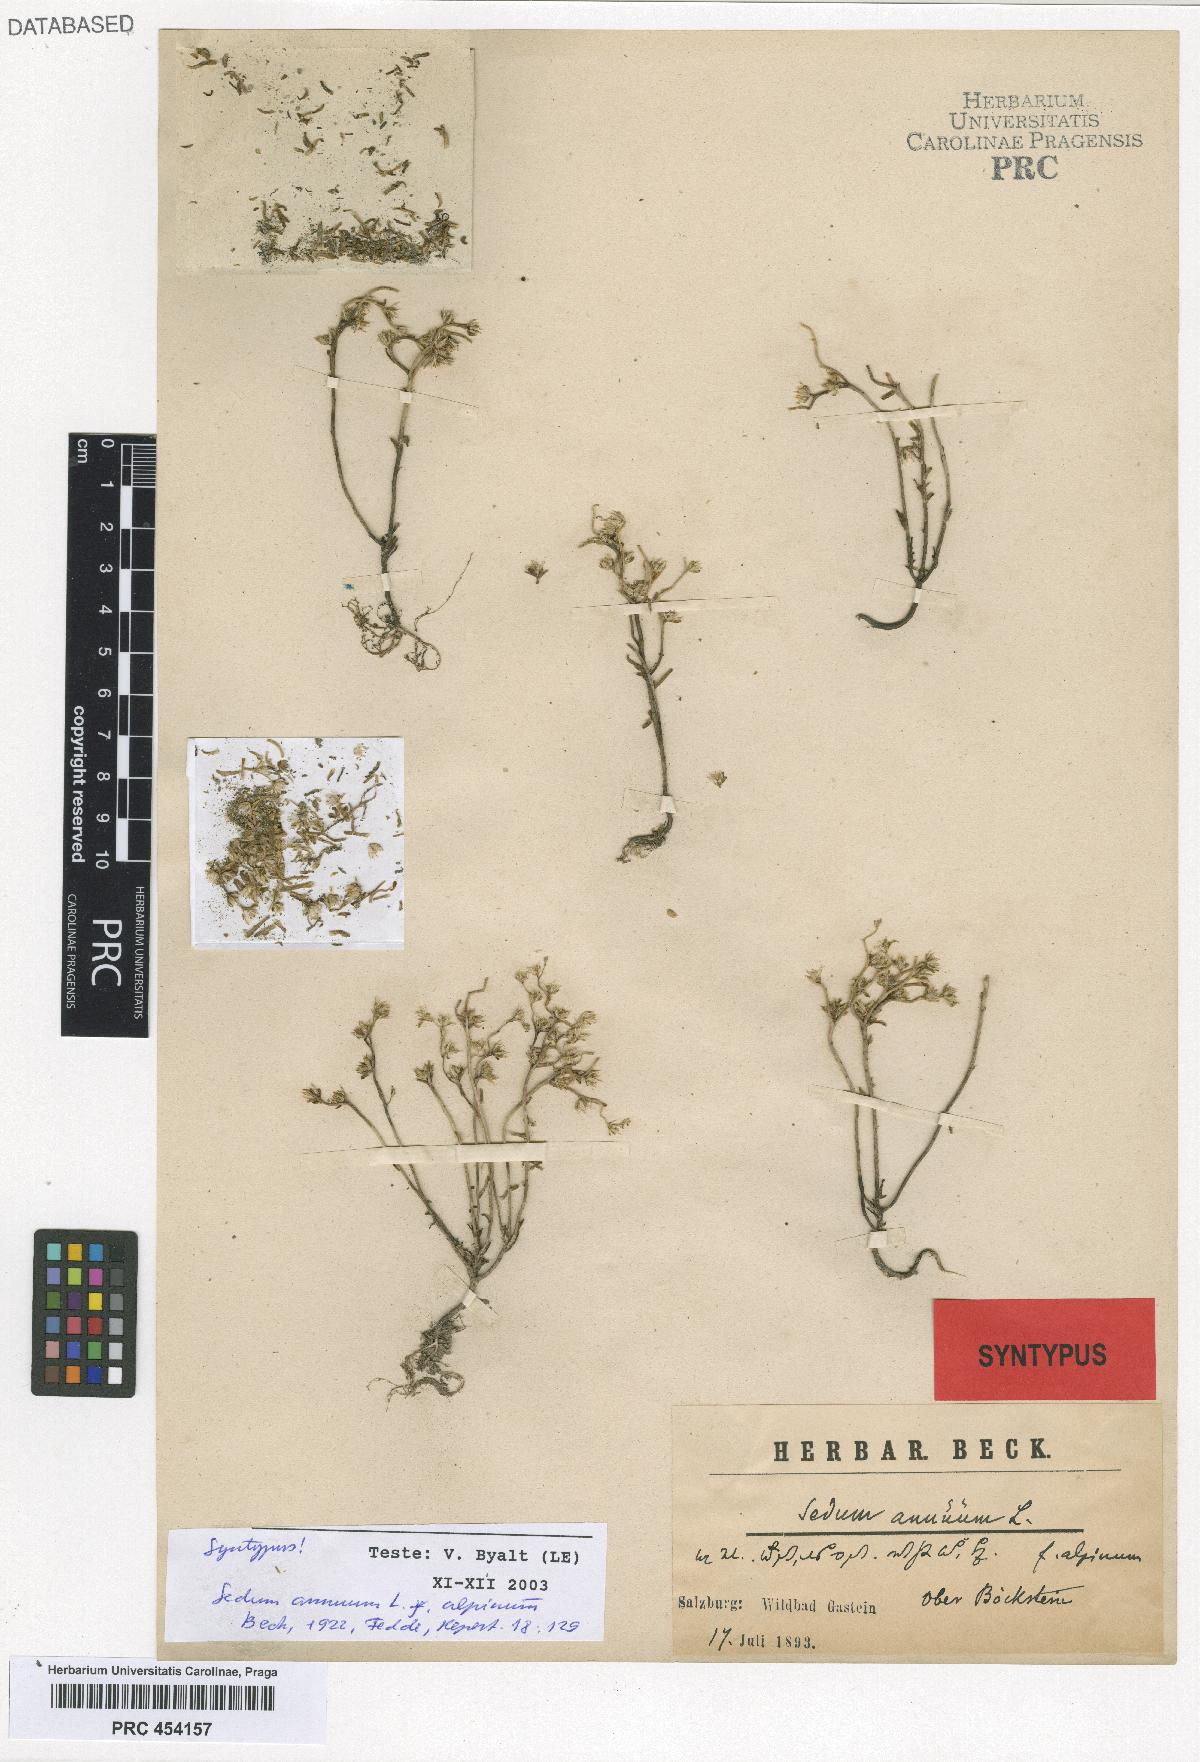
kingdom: Plantae
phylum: Tracheophyta
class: Magnoliopsida
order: Saxifragales
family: Crassulaceae
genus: Sedum
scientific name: Sedum annuum
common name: Annual stonecrop
